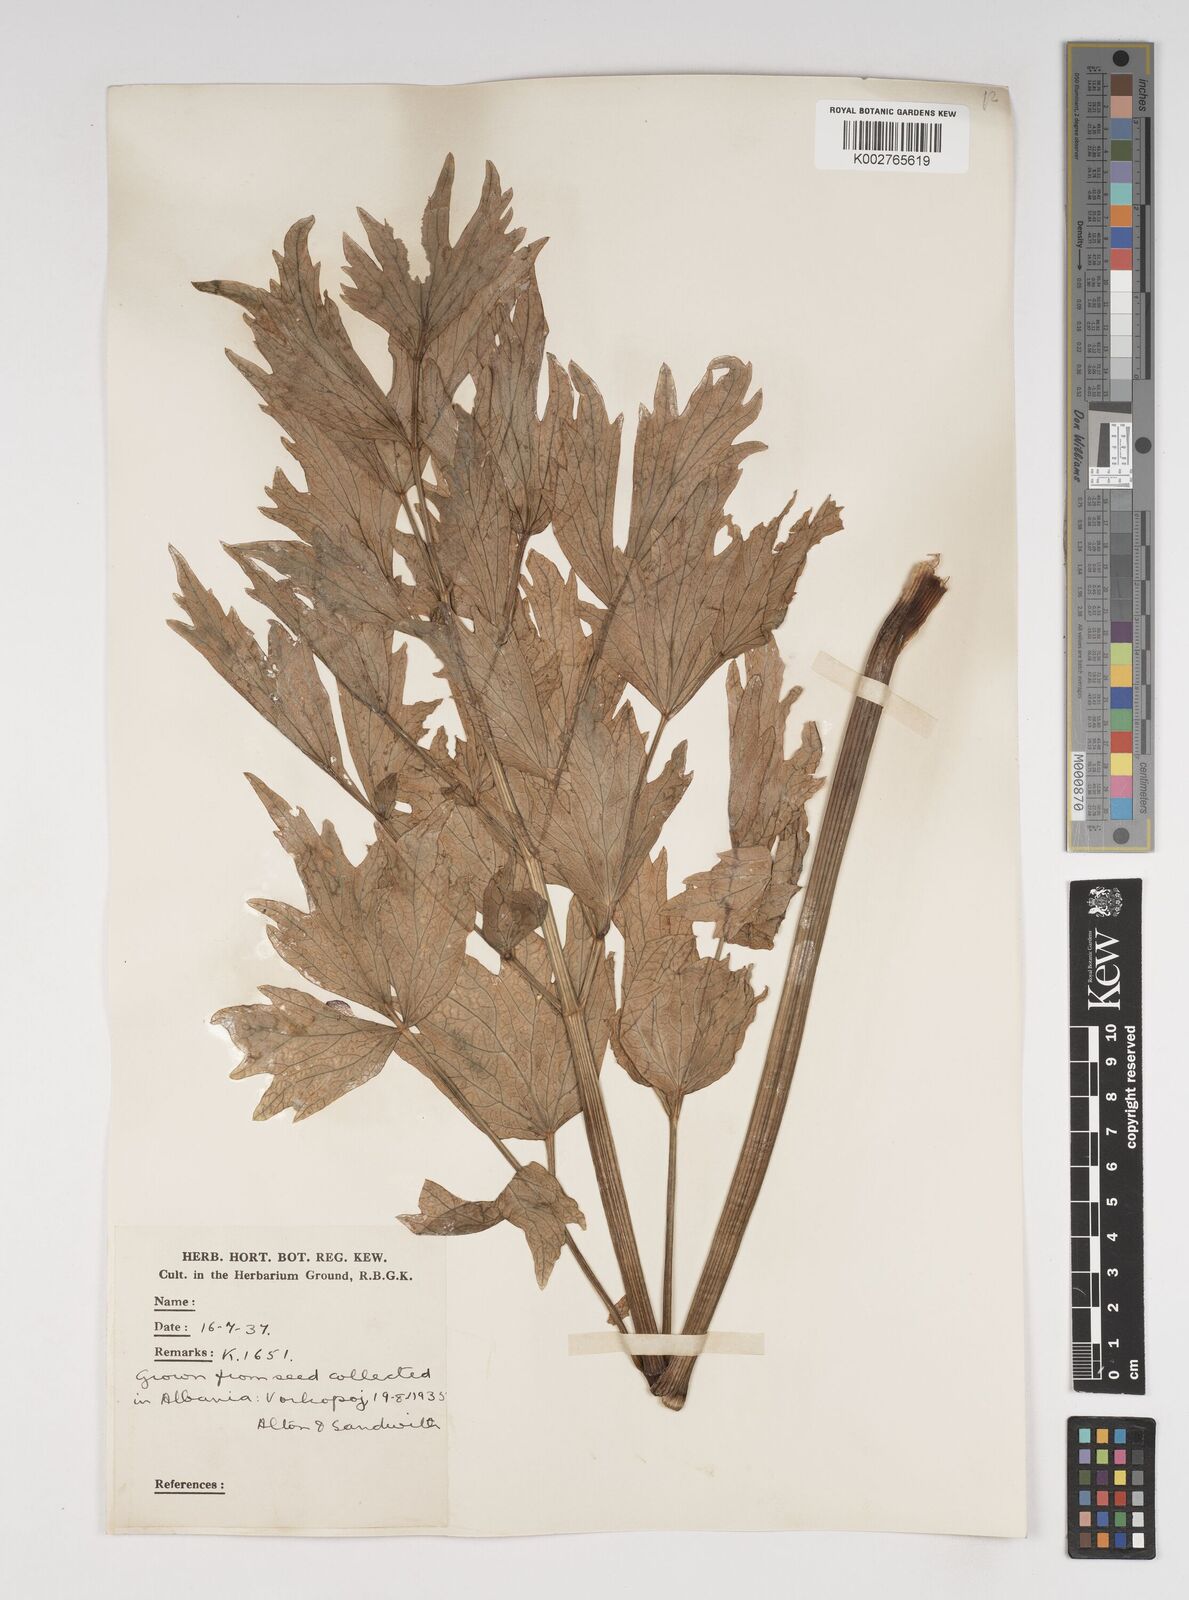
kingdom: Plantae
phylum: Tracheophyta
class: Magnoliopsida
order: Apiales
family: Apiaceae
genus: Levisticum
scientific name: Levisticum officinale
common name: Lovage
